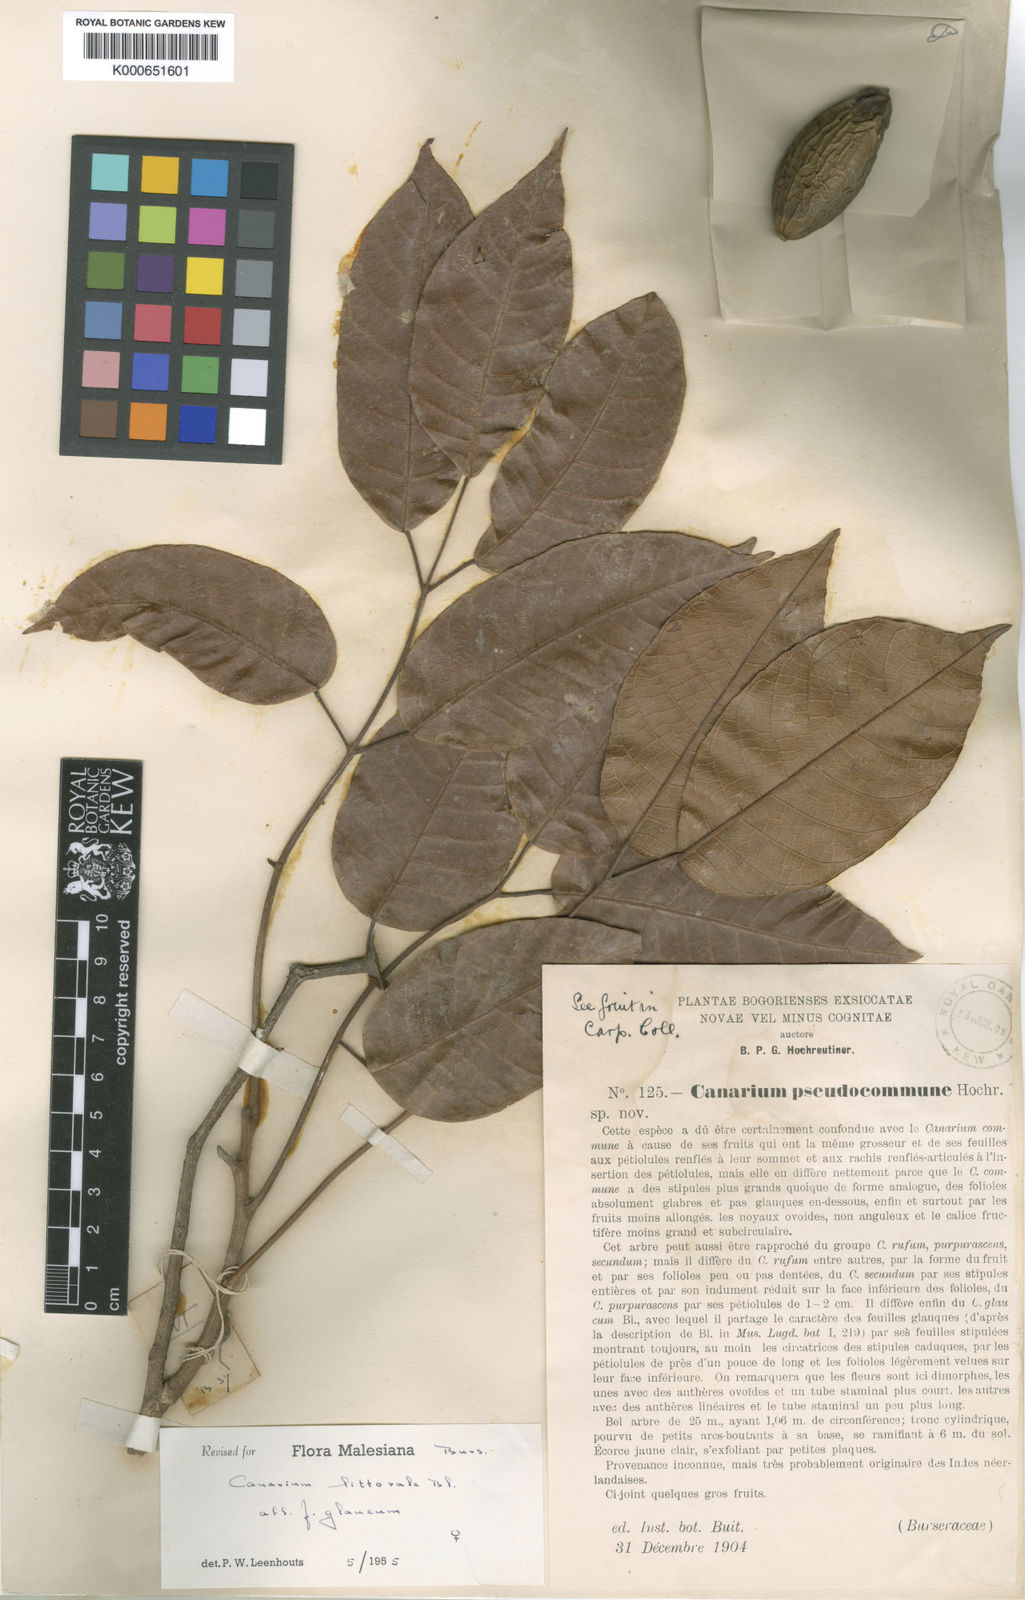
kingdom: Plantae
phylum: Tracheophyta
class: Magnoliopsida
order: Sapindales
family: Burseraceae
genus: Canarium
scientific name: Canarium littorale
